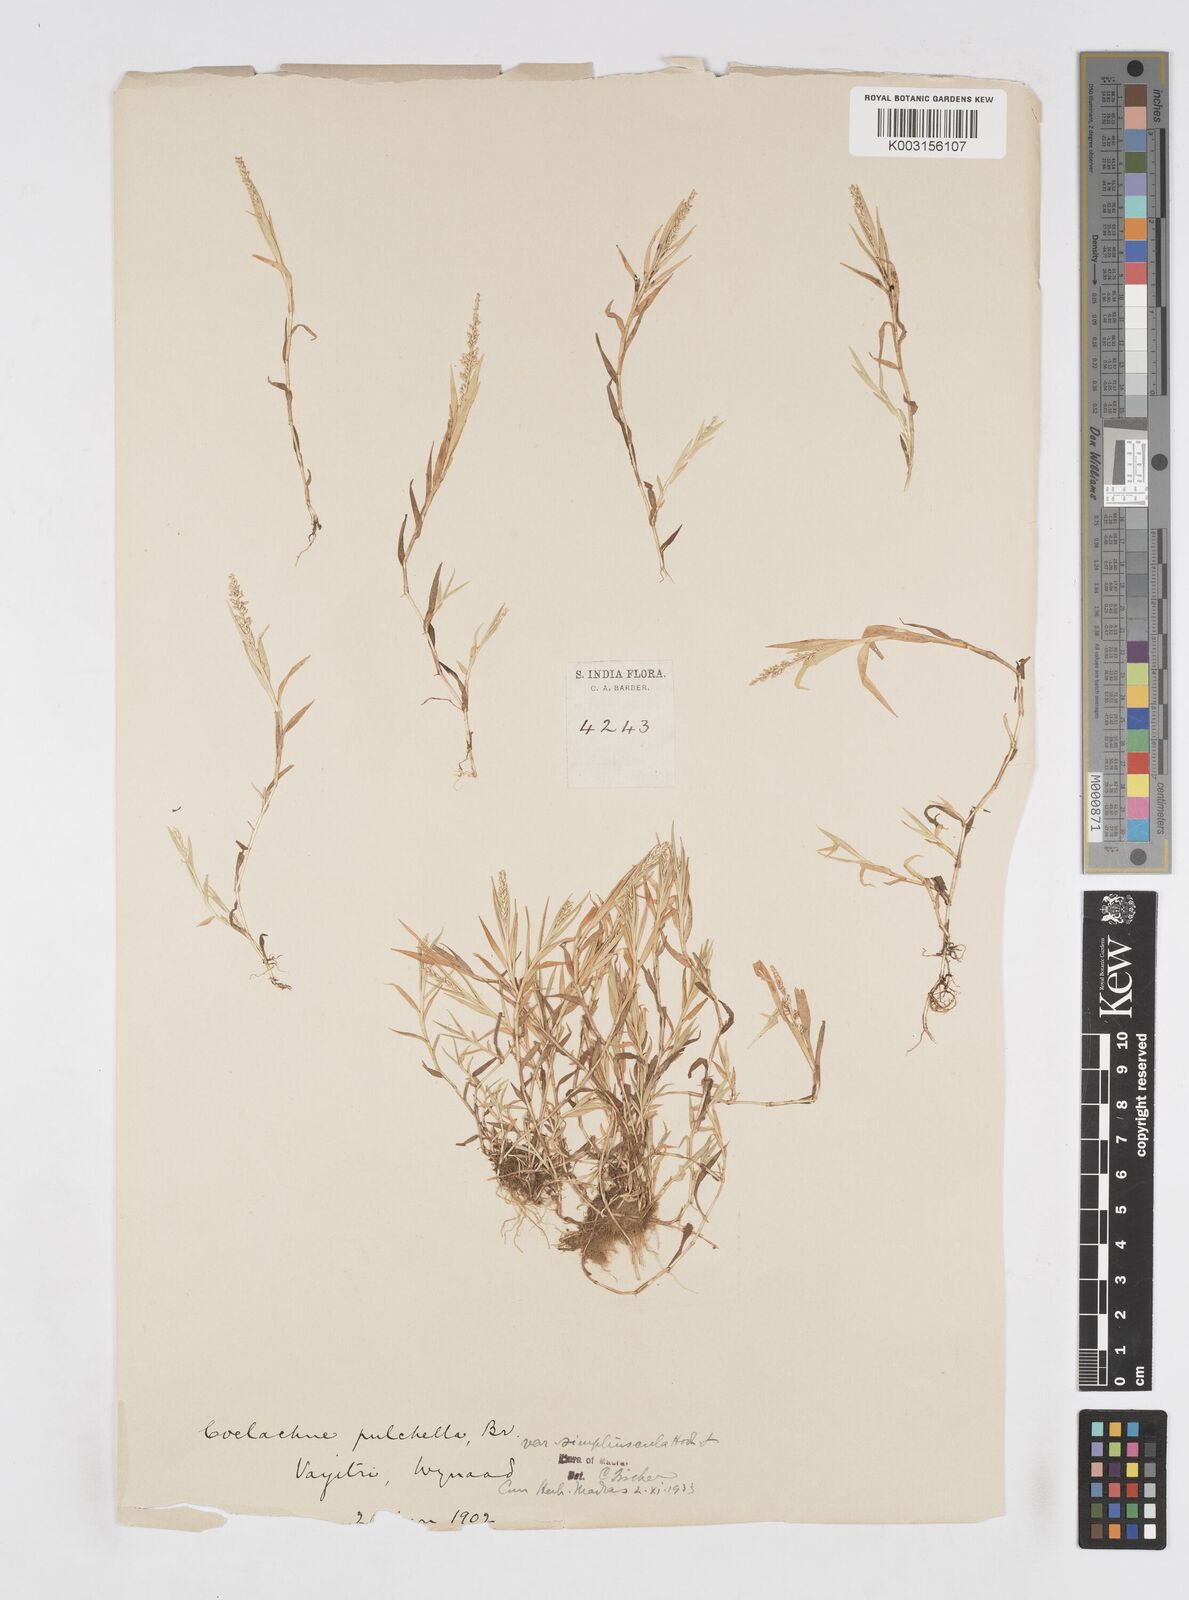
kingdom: Plantae
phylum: Tracheophyta
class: Liliopsida
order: Poales
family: Poaceae
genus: Coelachne
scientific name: Coelachne simpliciuscula
